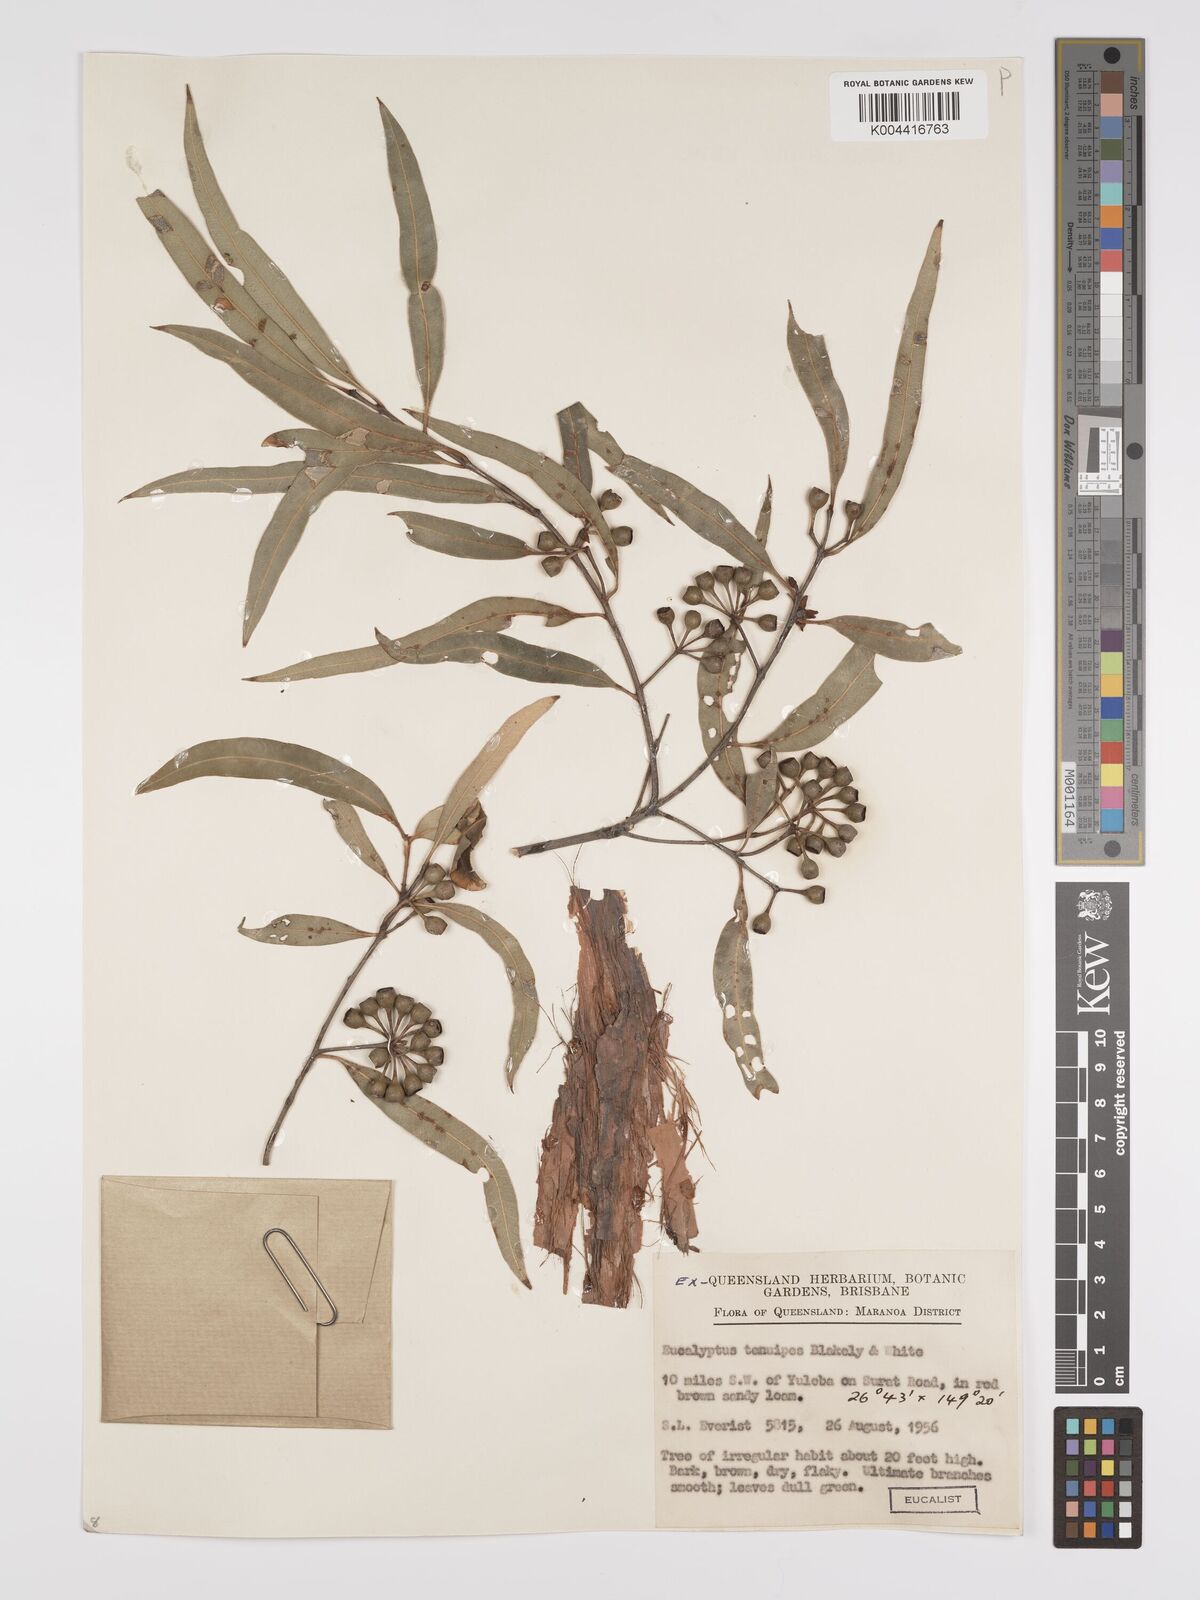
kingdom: Plantae
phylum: Tracheophyta
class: Magnoliopsida
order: Myrtales
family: Myrtaceae
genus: Eucalyptus
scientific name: Eucalyptus tenuipes
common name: Narrow-leaved white mahogany
